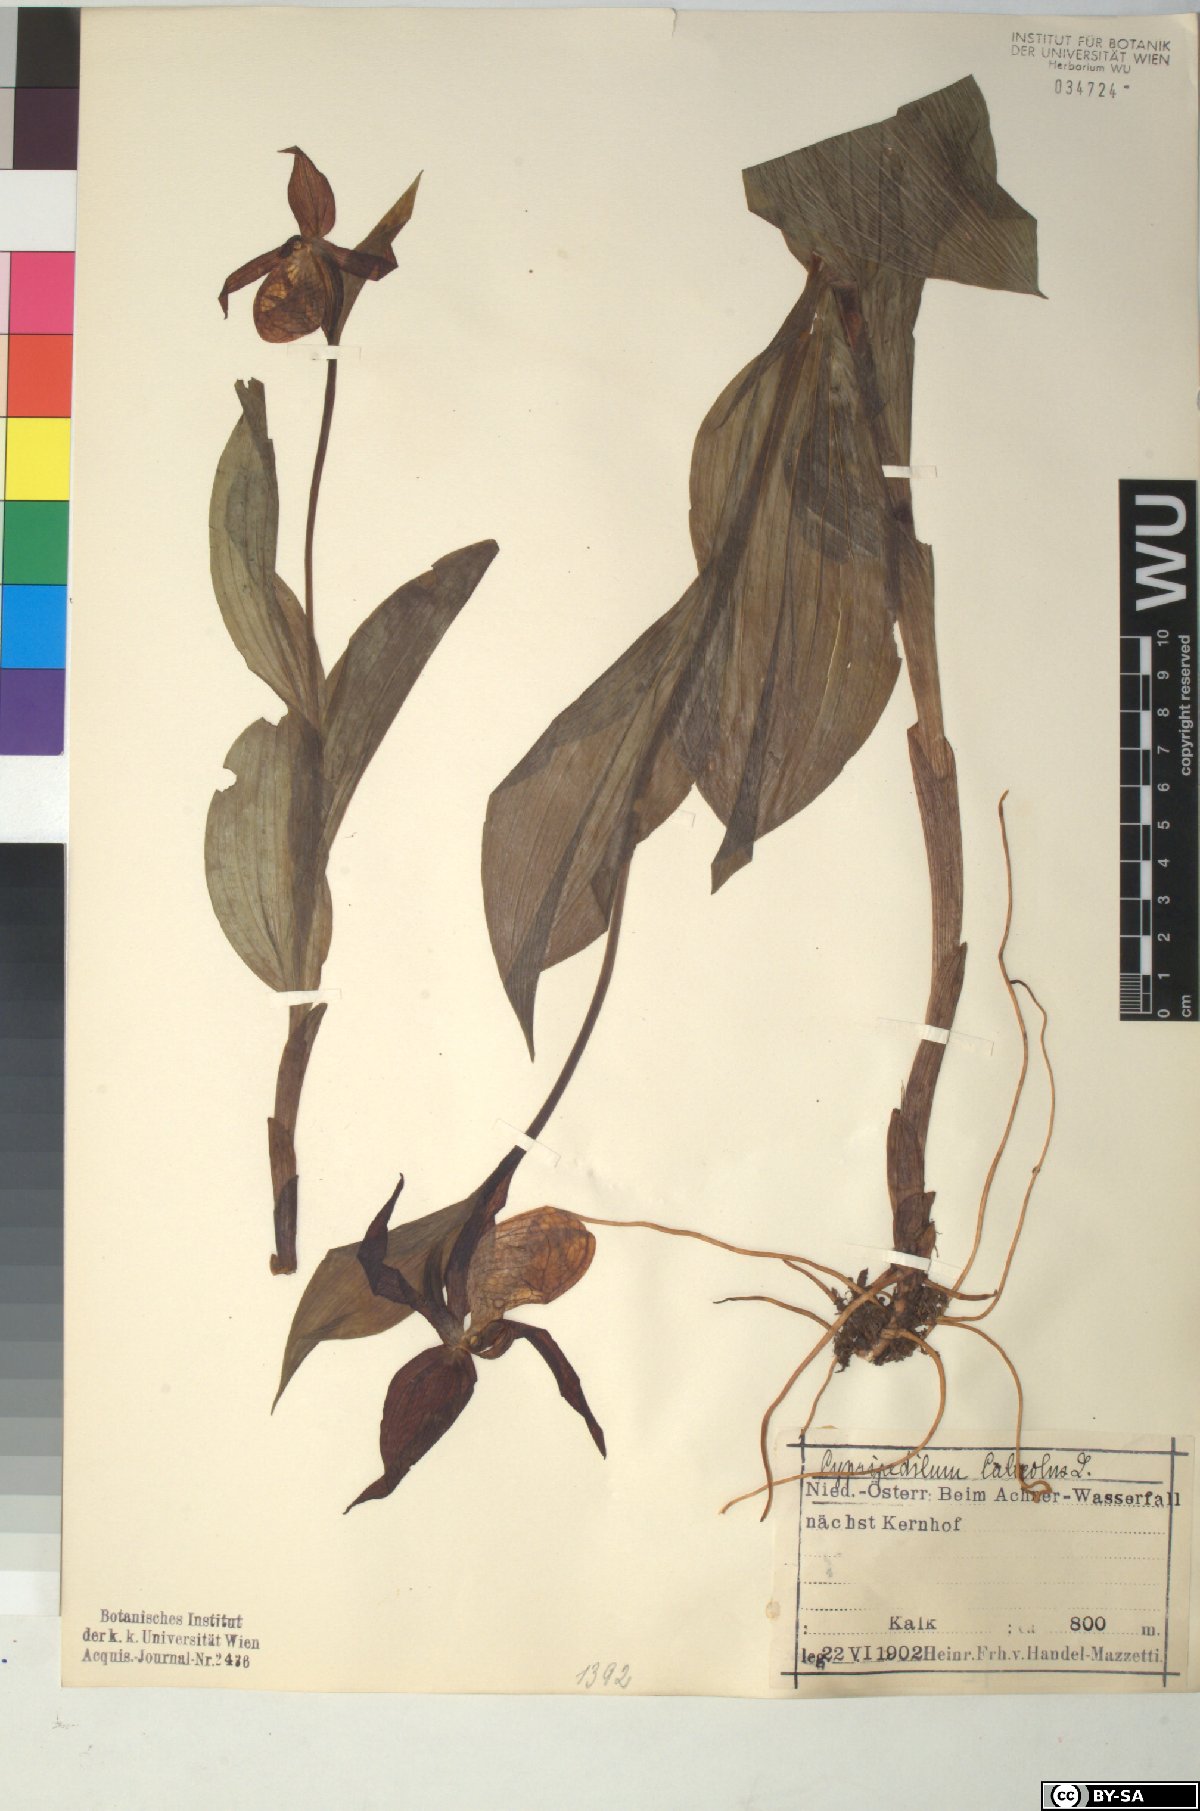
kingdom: Plantae
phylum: Tracheophyta
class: Liliopsida
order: Asparagales
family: Orchidaceae
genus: Cypripedium
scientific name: Cypripedium calceolus
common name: Lady's-slipper
